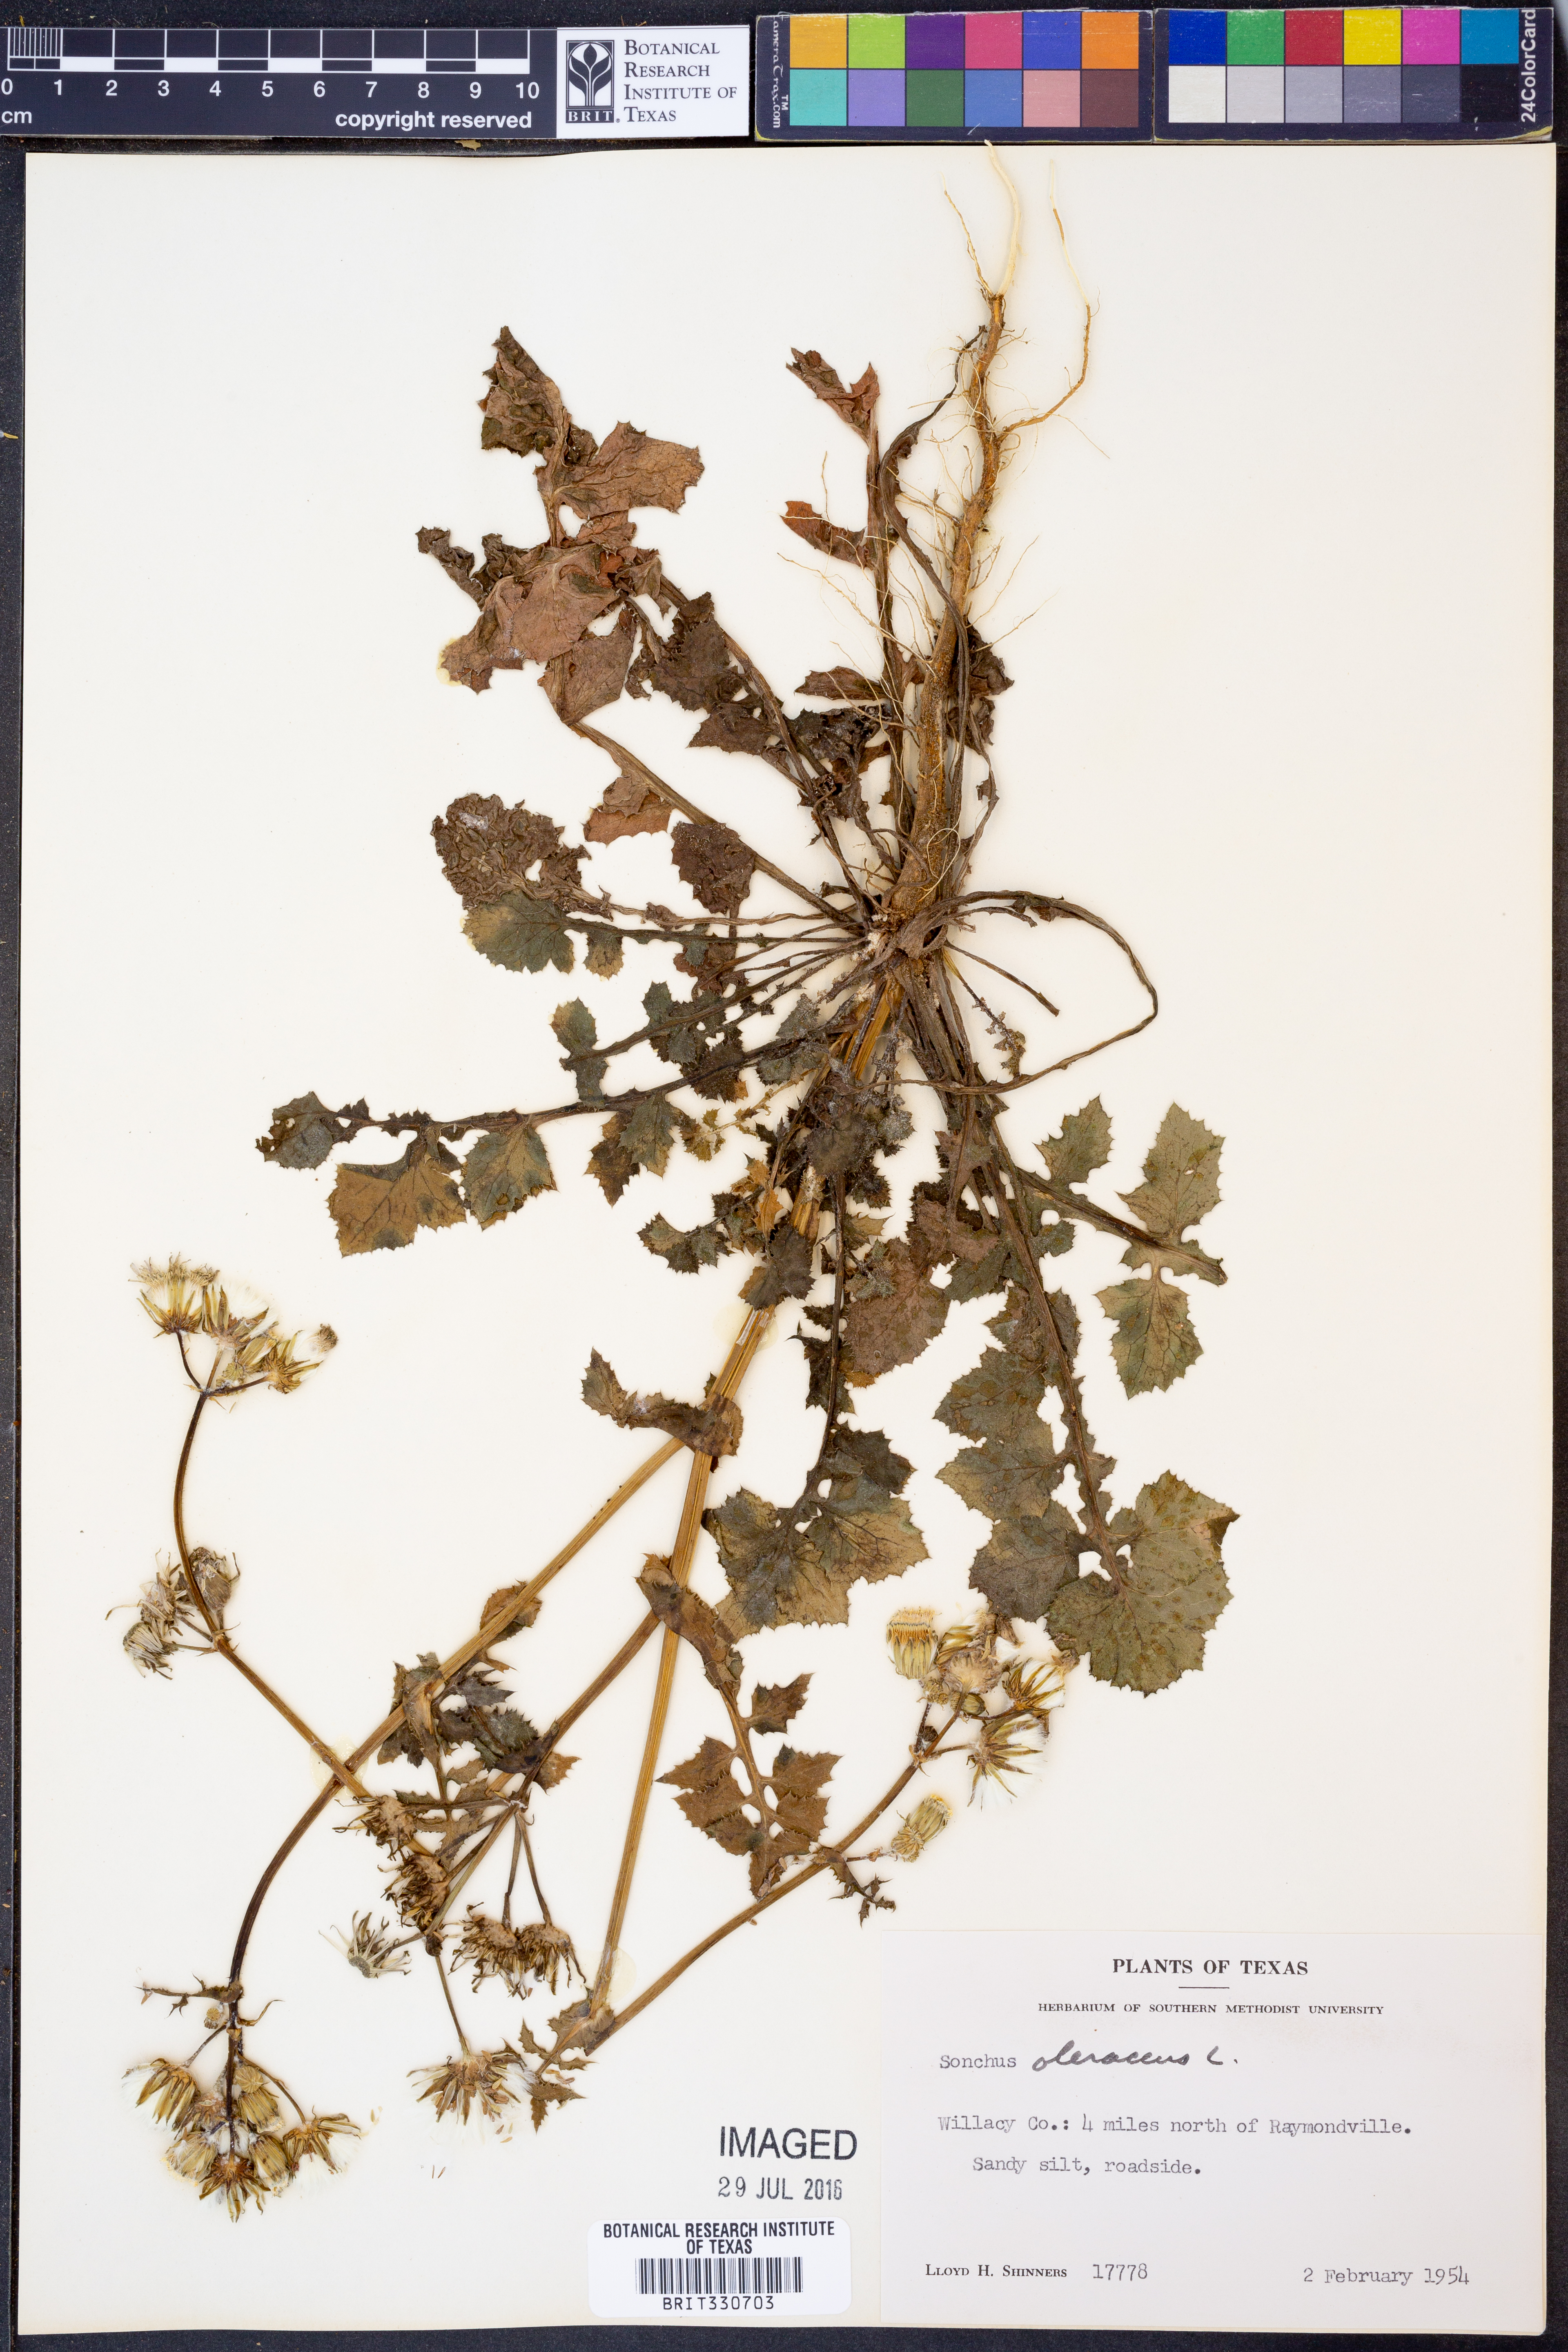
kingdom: Plantae
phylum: Tracheophyta
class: Magnoliopsida
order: Asterales
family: Asteraceae
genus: Sonchus
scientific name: Sonchus oleraceus
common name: Common sowthistle
